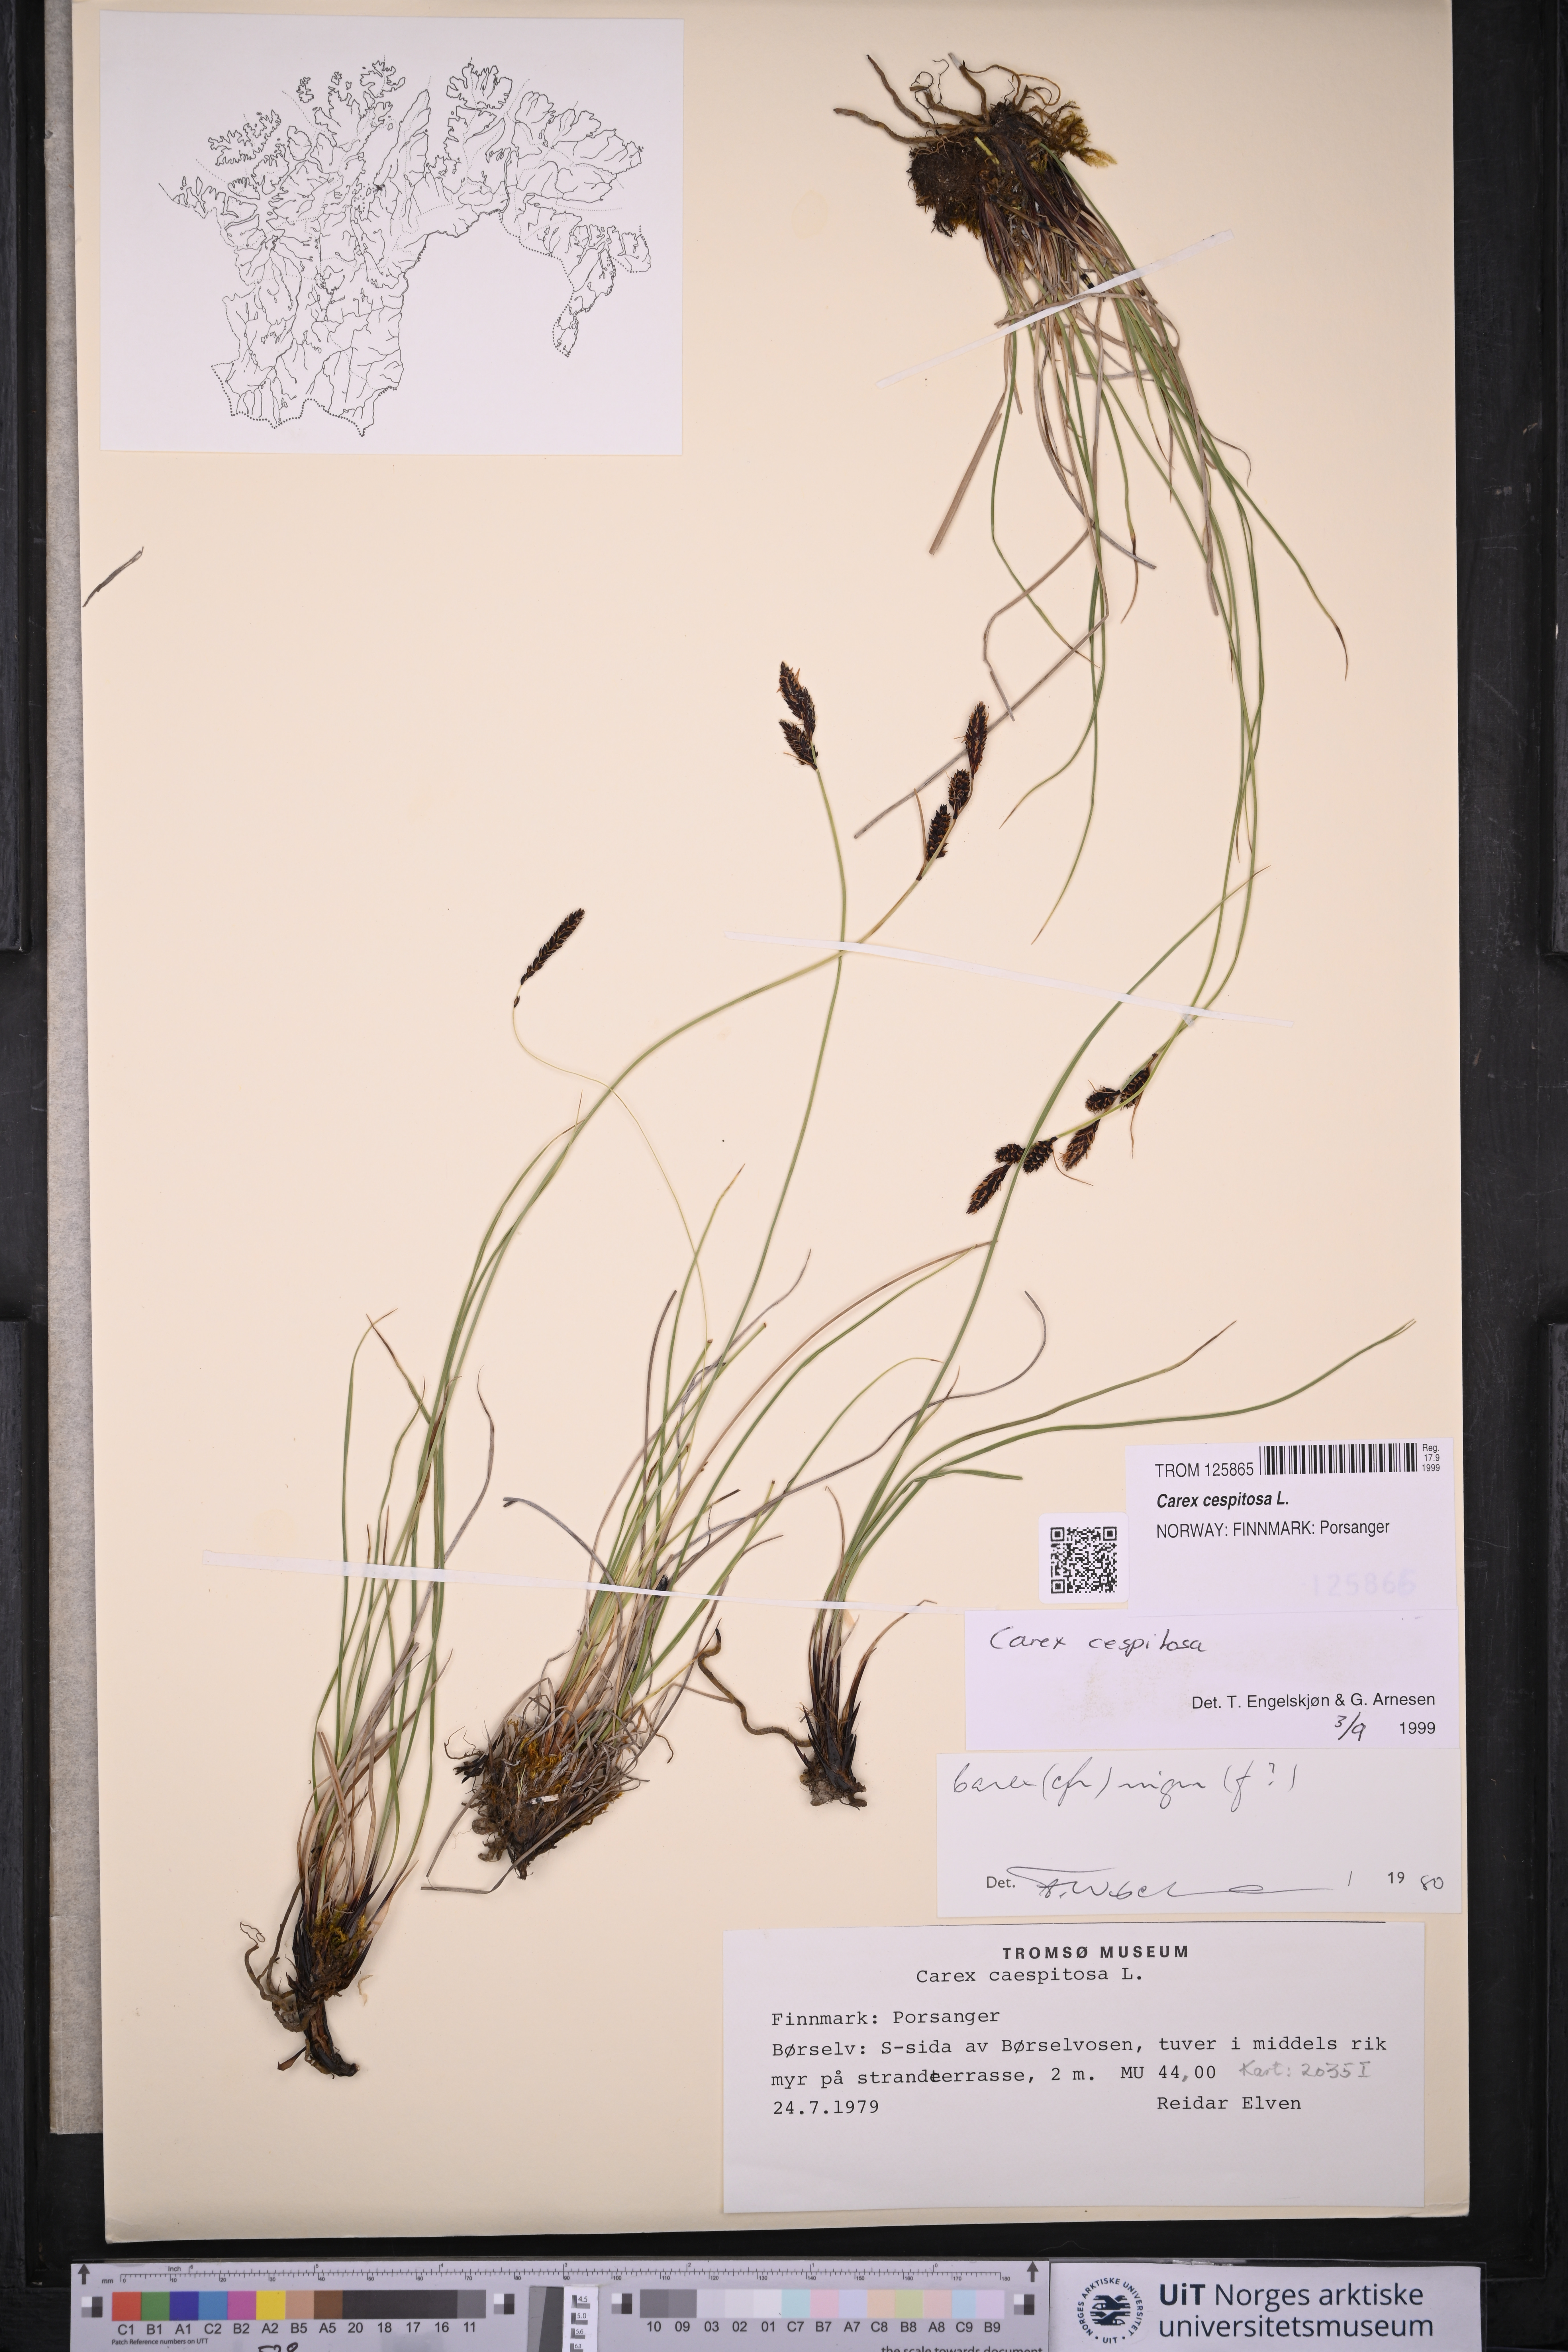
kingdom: Plantae
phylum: Tracheophyta
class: Liliopsida
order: Poales
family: Cyperaceae
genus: Carex
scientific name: Carex cespitosa
